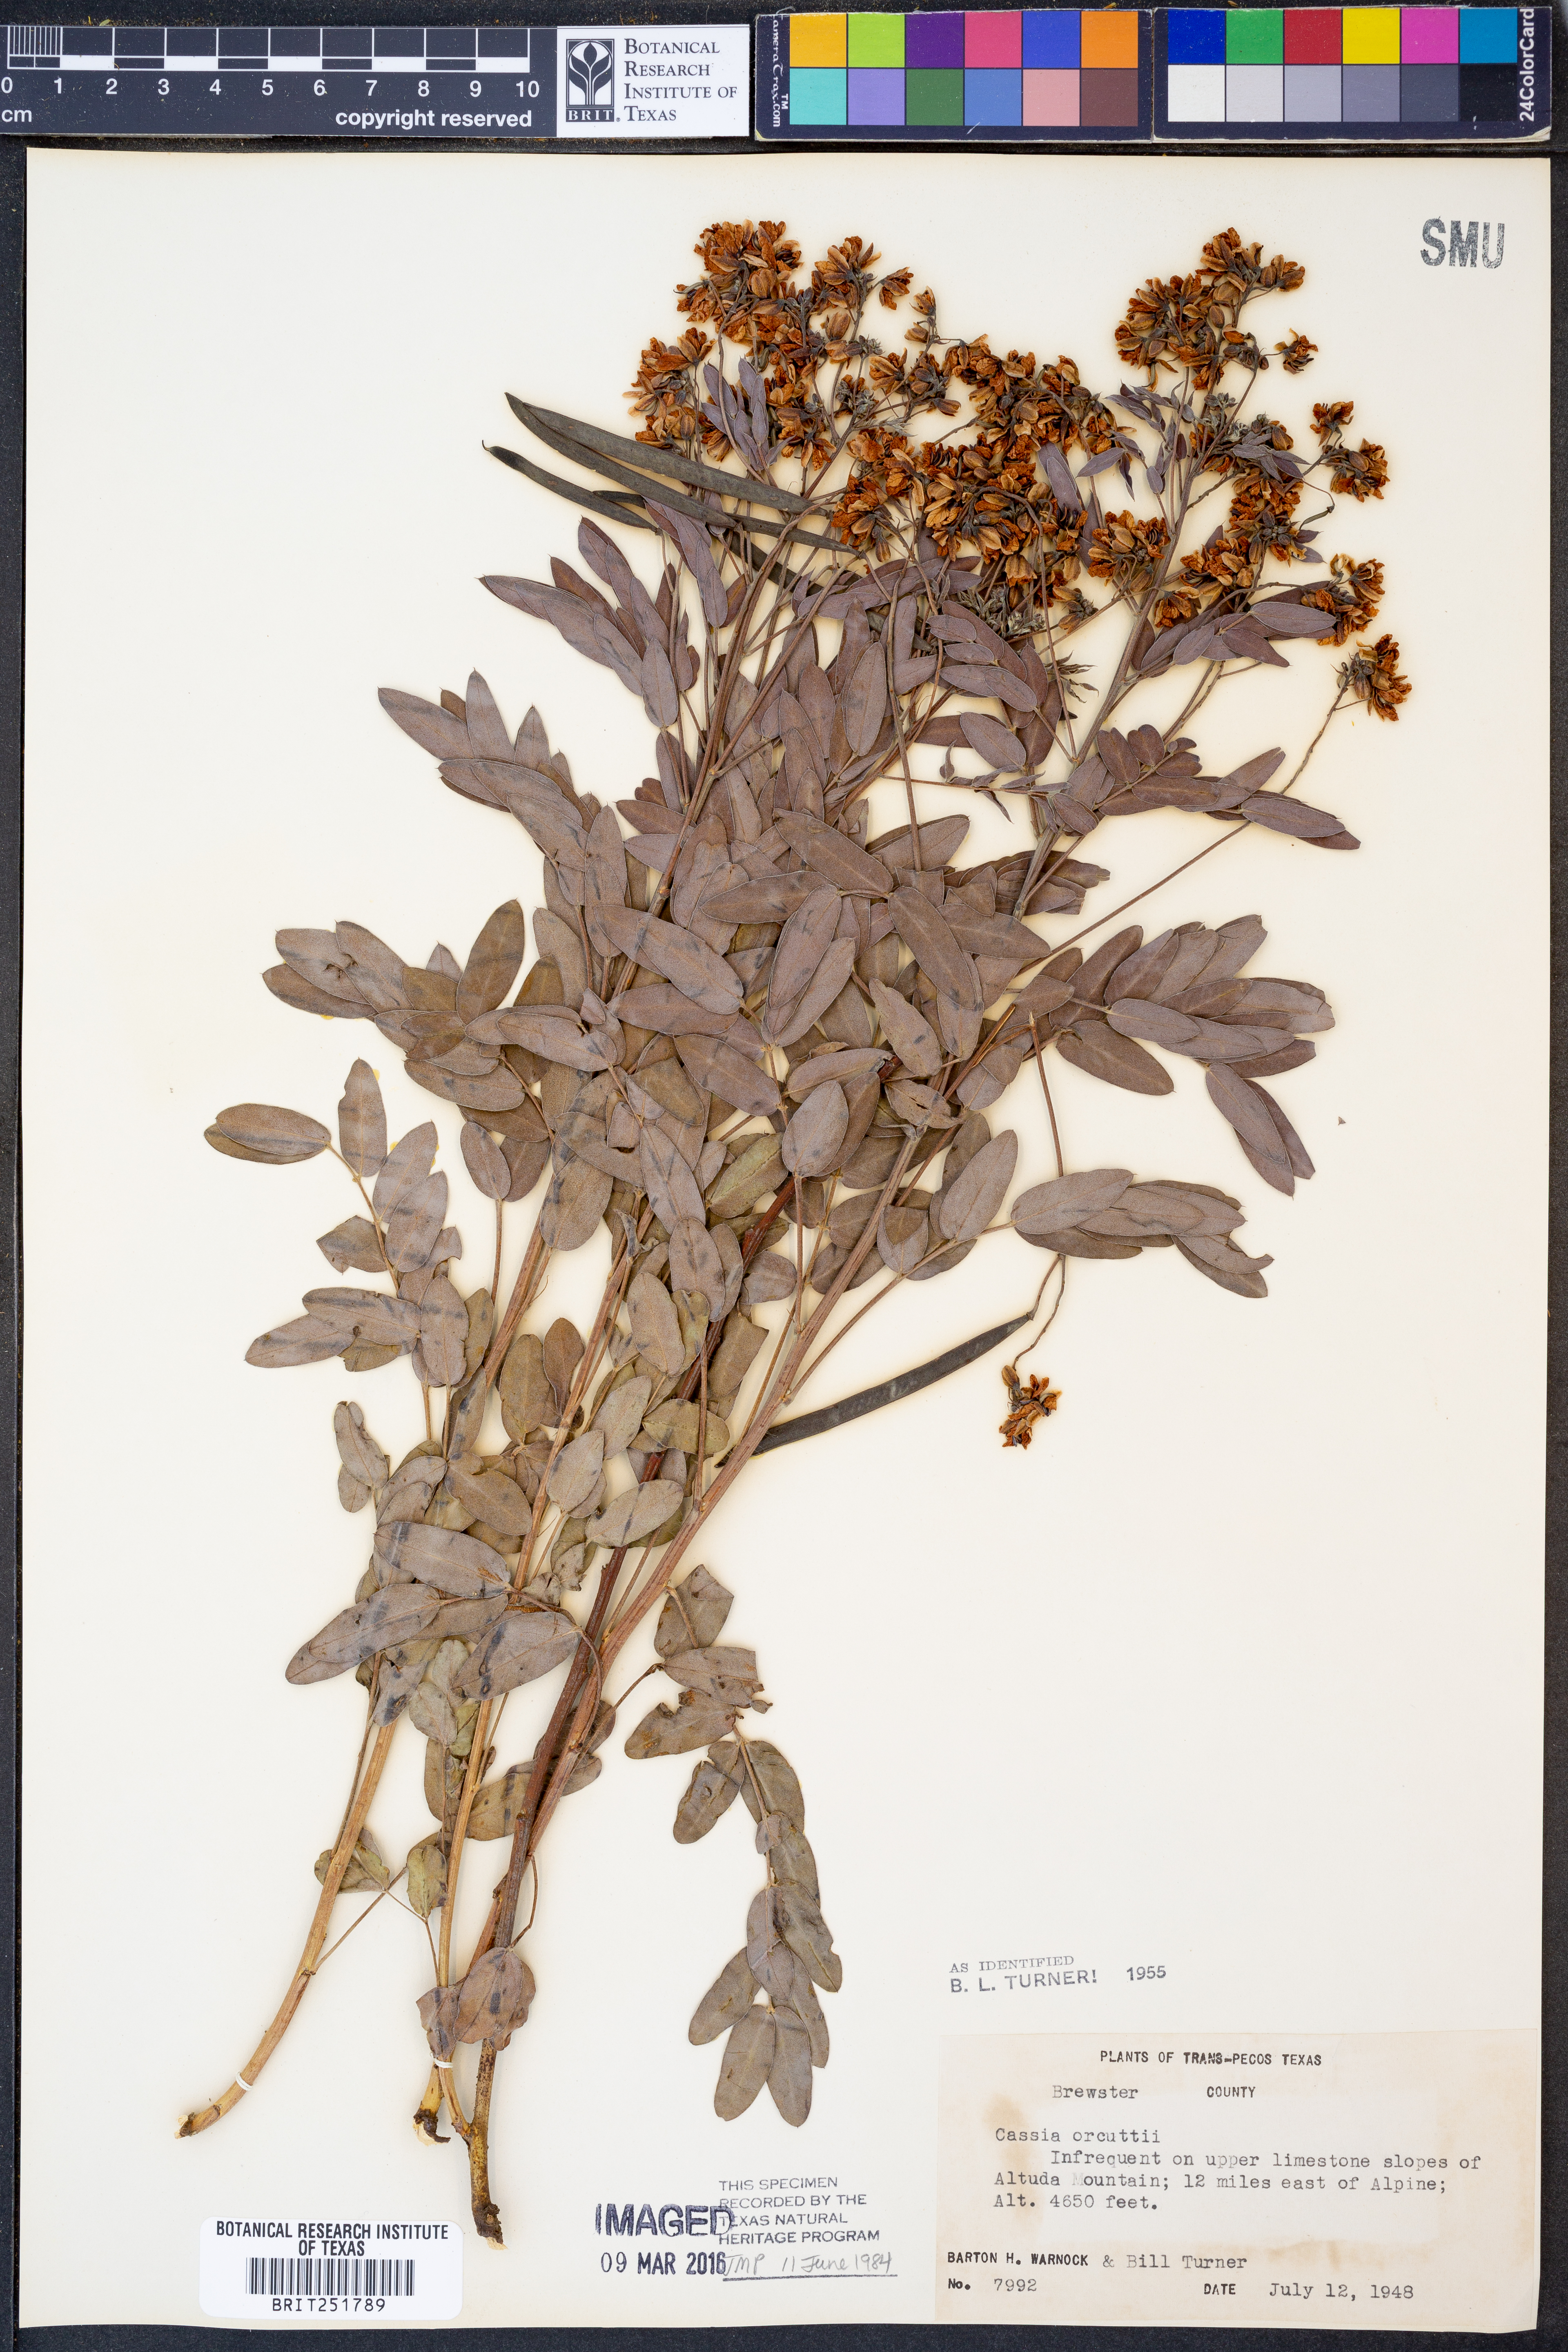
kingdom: Plantae
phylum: Tracheophyta
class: Magnoliopsida
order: Fabales
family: Fabaceae
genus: Senna
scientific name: Senna orcuttii
